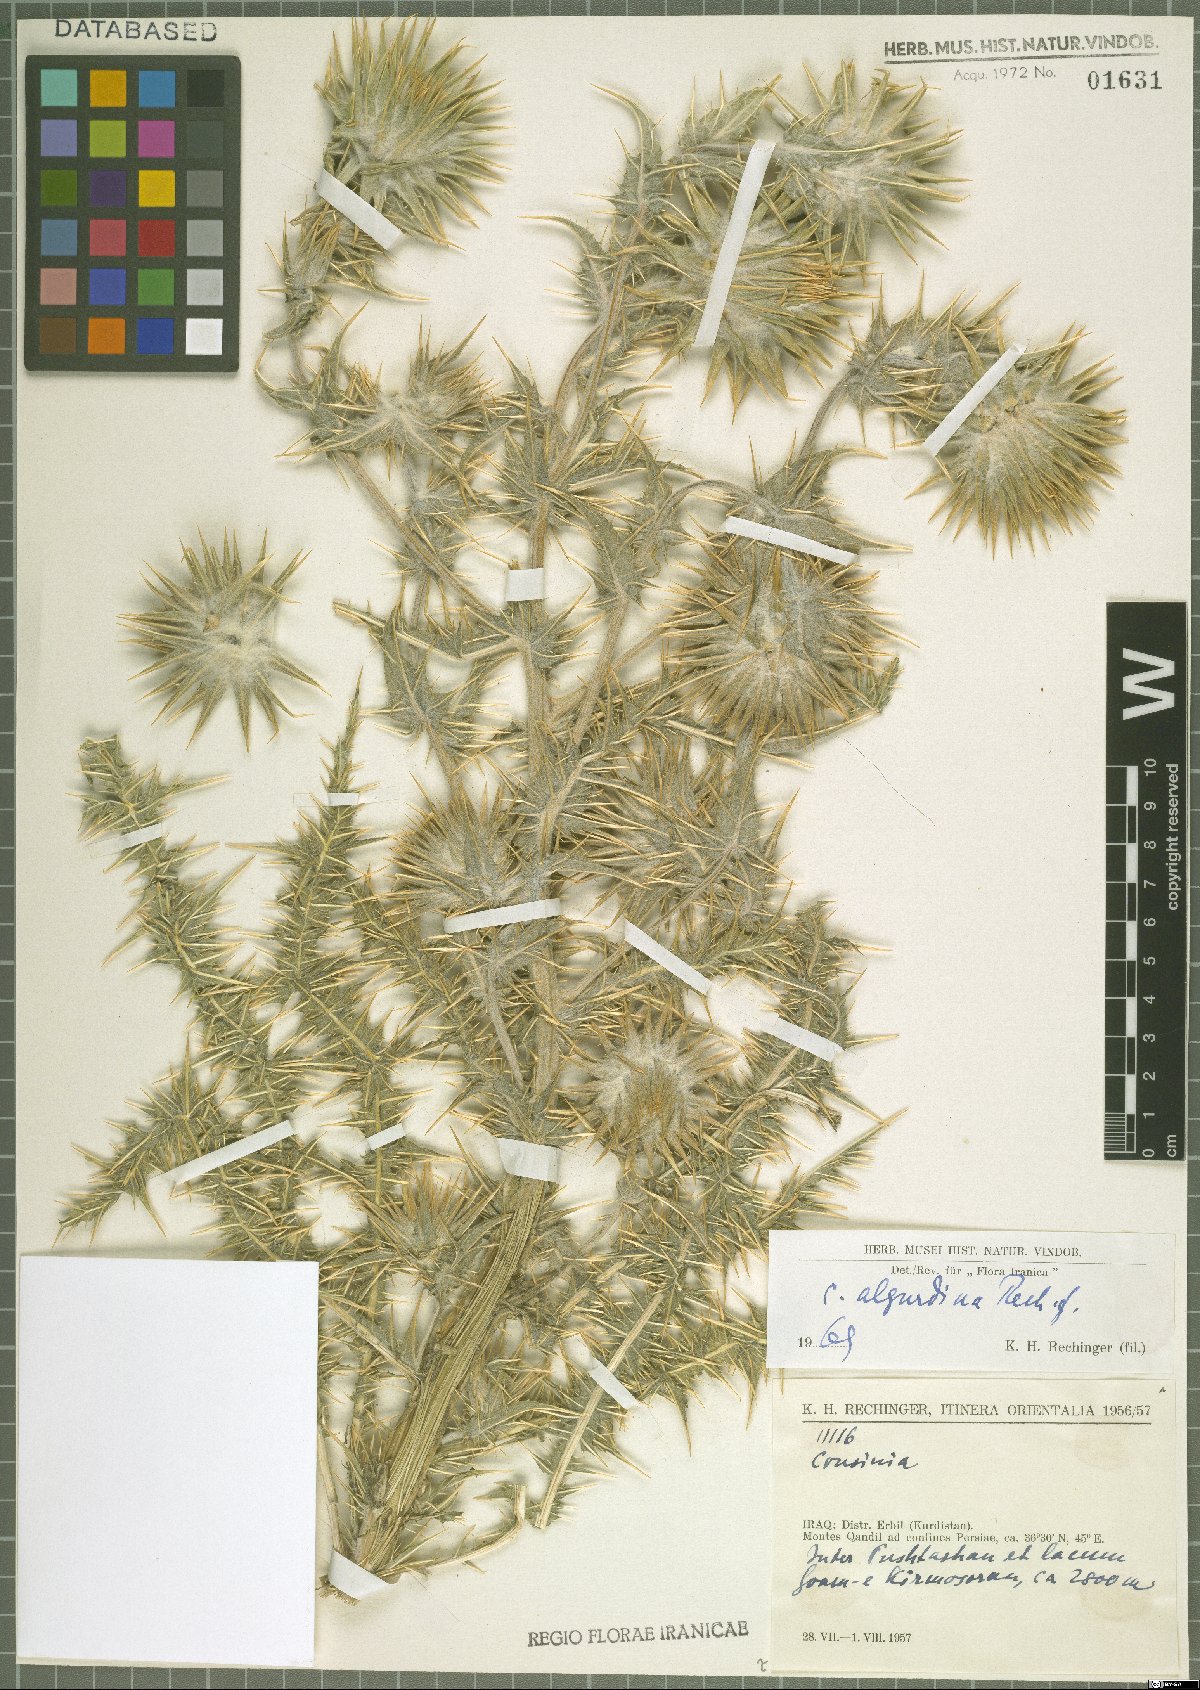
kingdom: Plantae
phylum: Tracheophyta
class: Magnoliopsida
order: Asterales
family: Asteraceae
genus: Cousinia
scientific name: Cousinia algurdina
